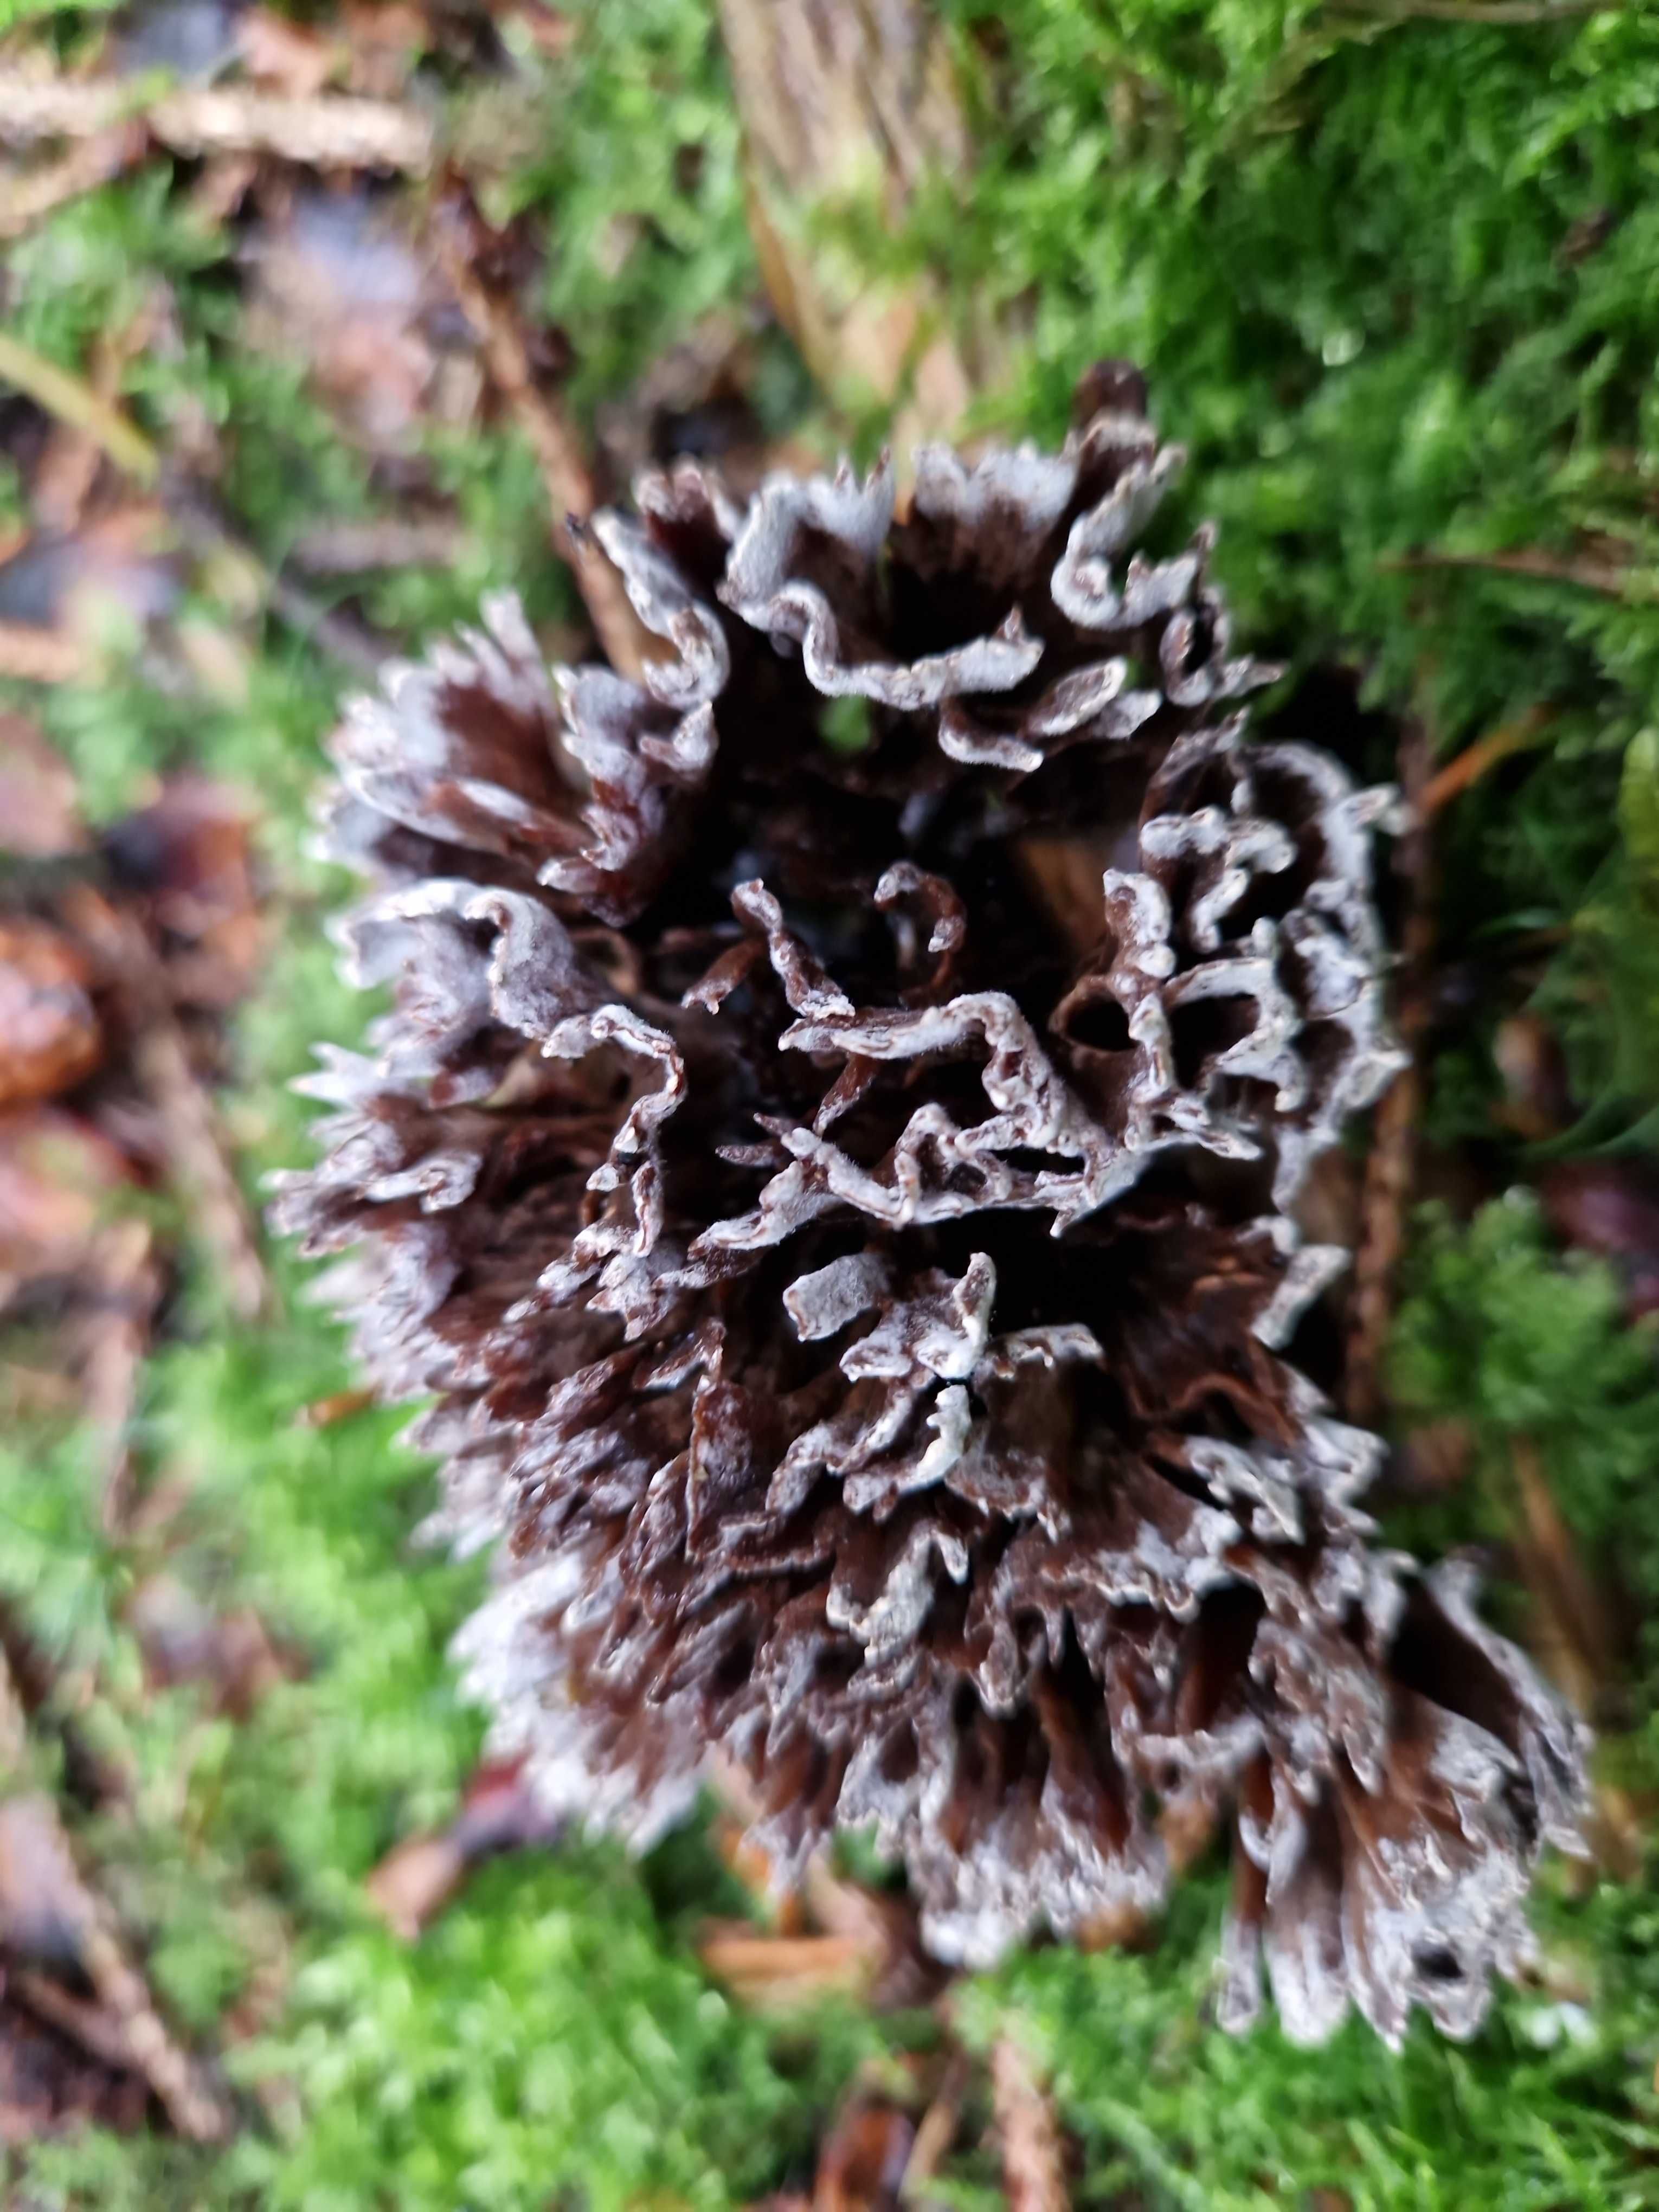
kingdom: Fungi
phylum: Basidiomycota
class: Agaricomycetes
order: Thelephorales
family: Thelephoraceae
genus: Thelephora
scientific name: Thelephora palmata
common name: grenet frynsesvamp
